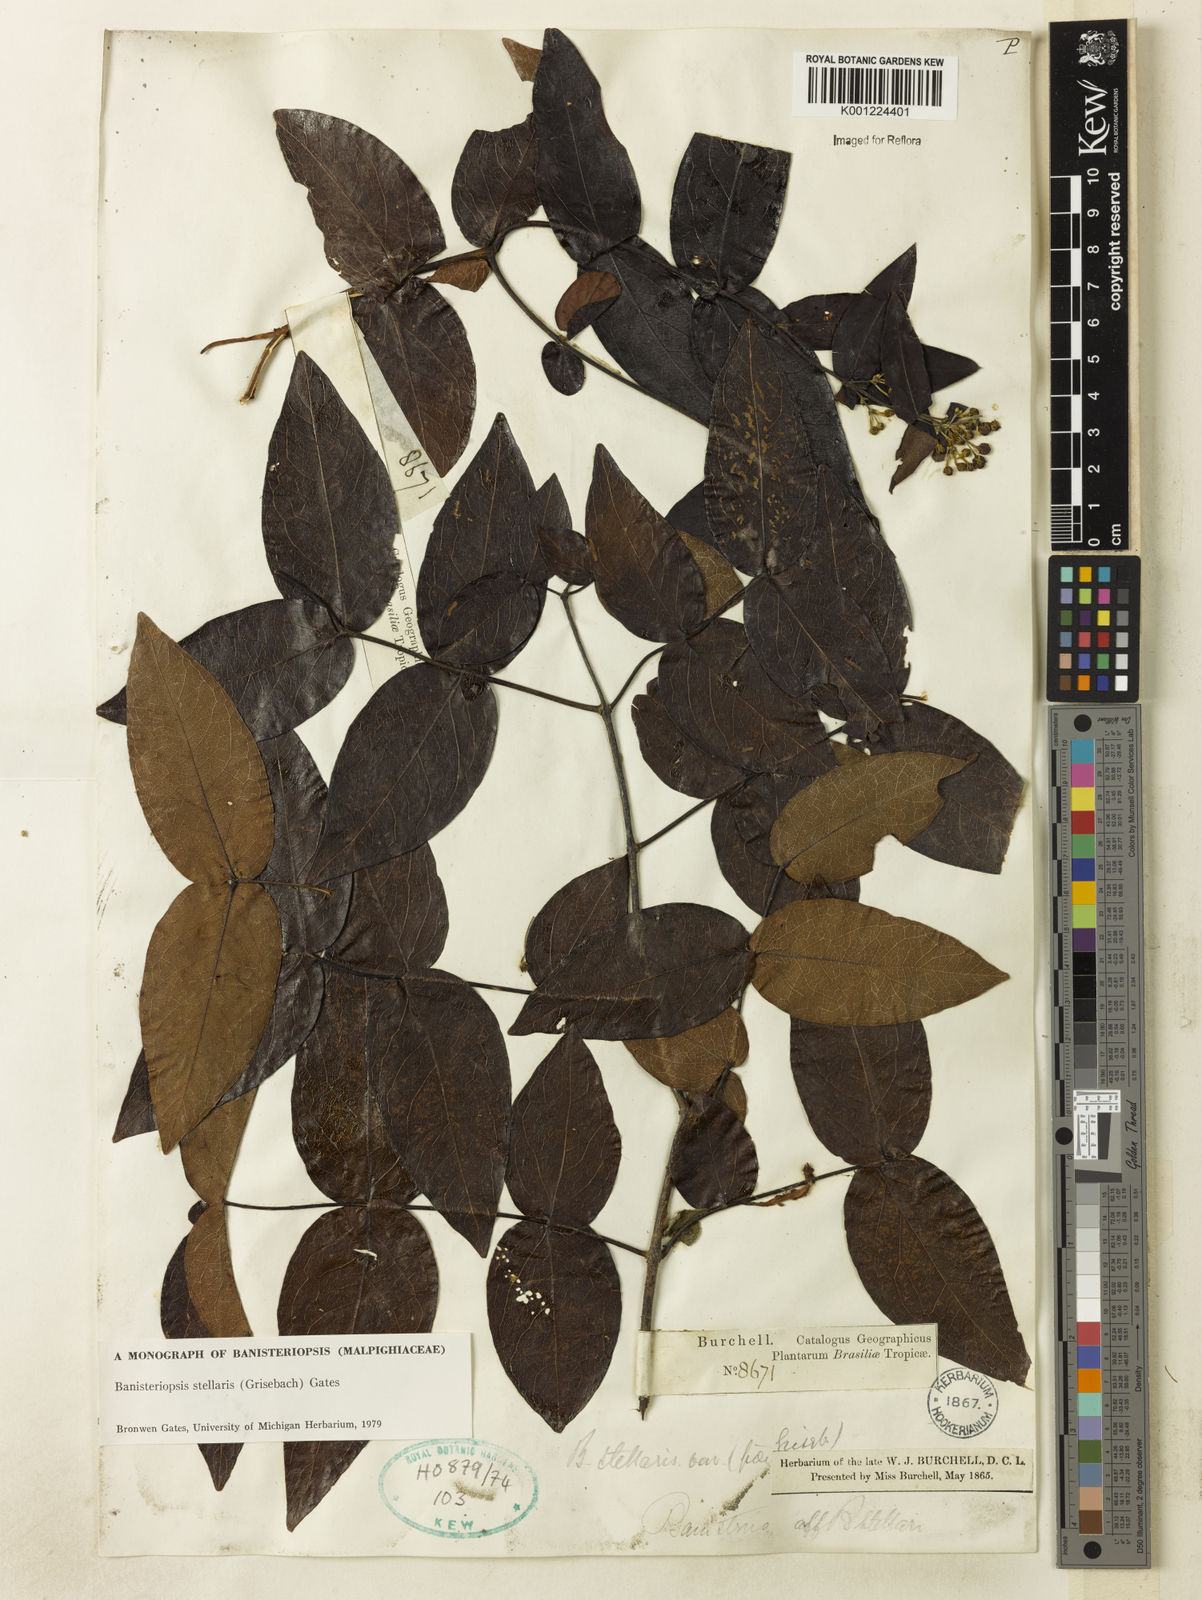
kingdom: Plantae
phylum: Tracheophyta
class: Magnoliopsida
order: Malpighiales
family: Malpighiaceae
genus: Banisteriopsis
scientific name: Banisteriopsis stellaris
